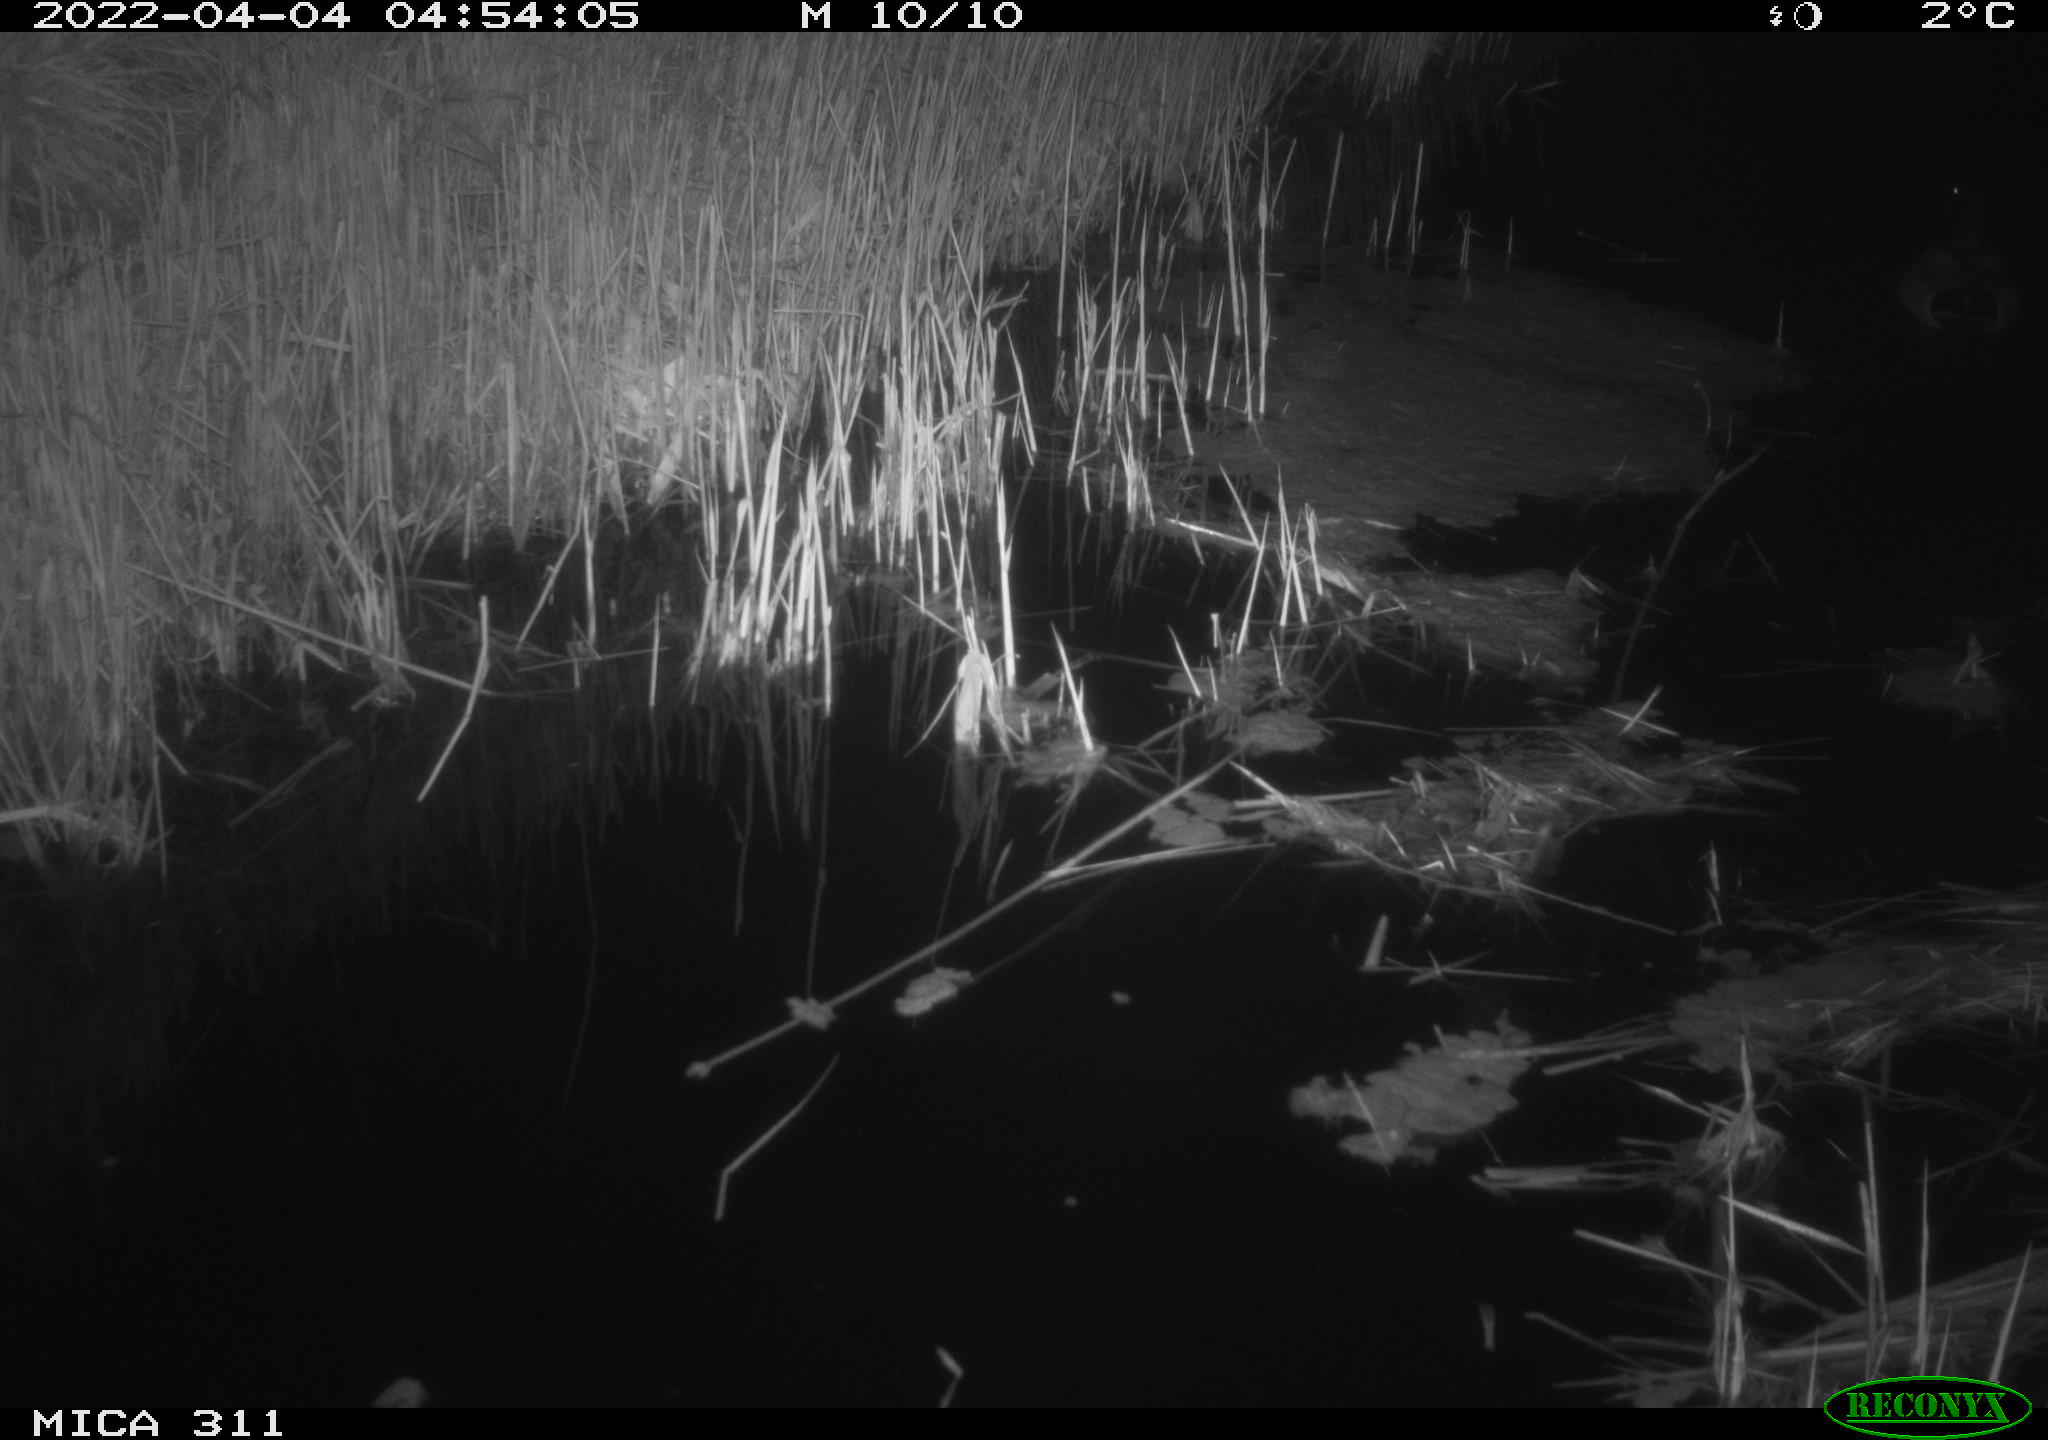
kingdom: Animalia
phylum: Chordata
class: Aves
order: Anseriformes
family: Anatidae
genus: Anas
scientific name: Anas
